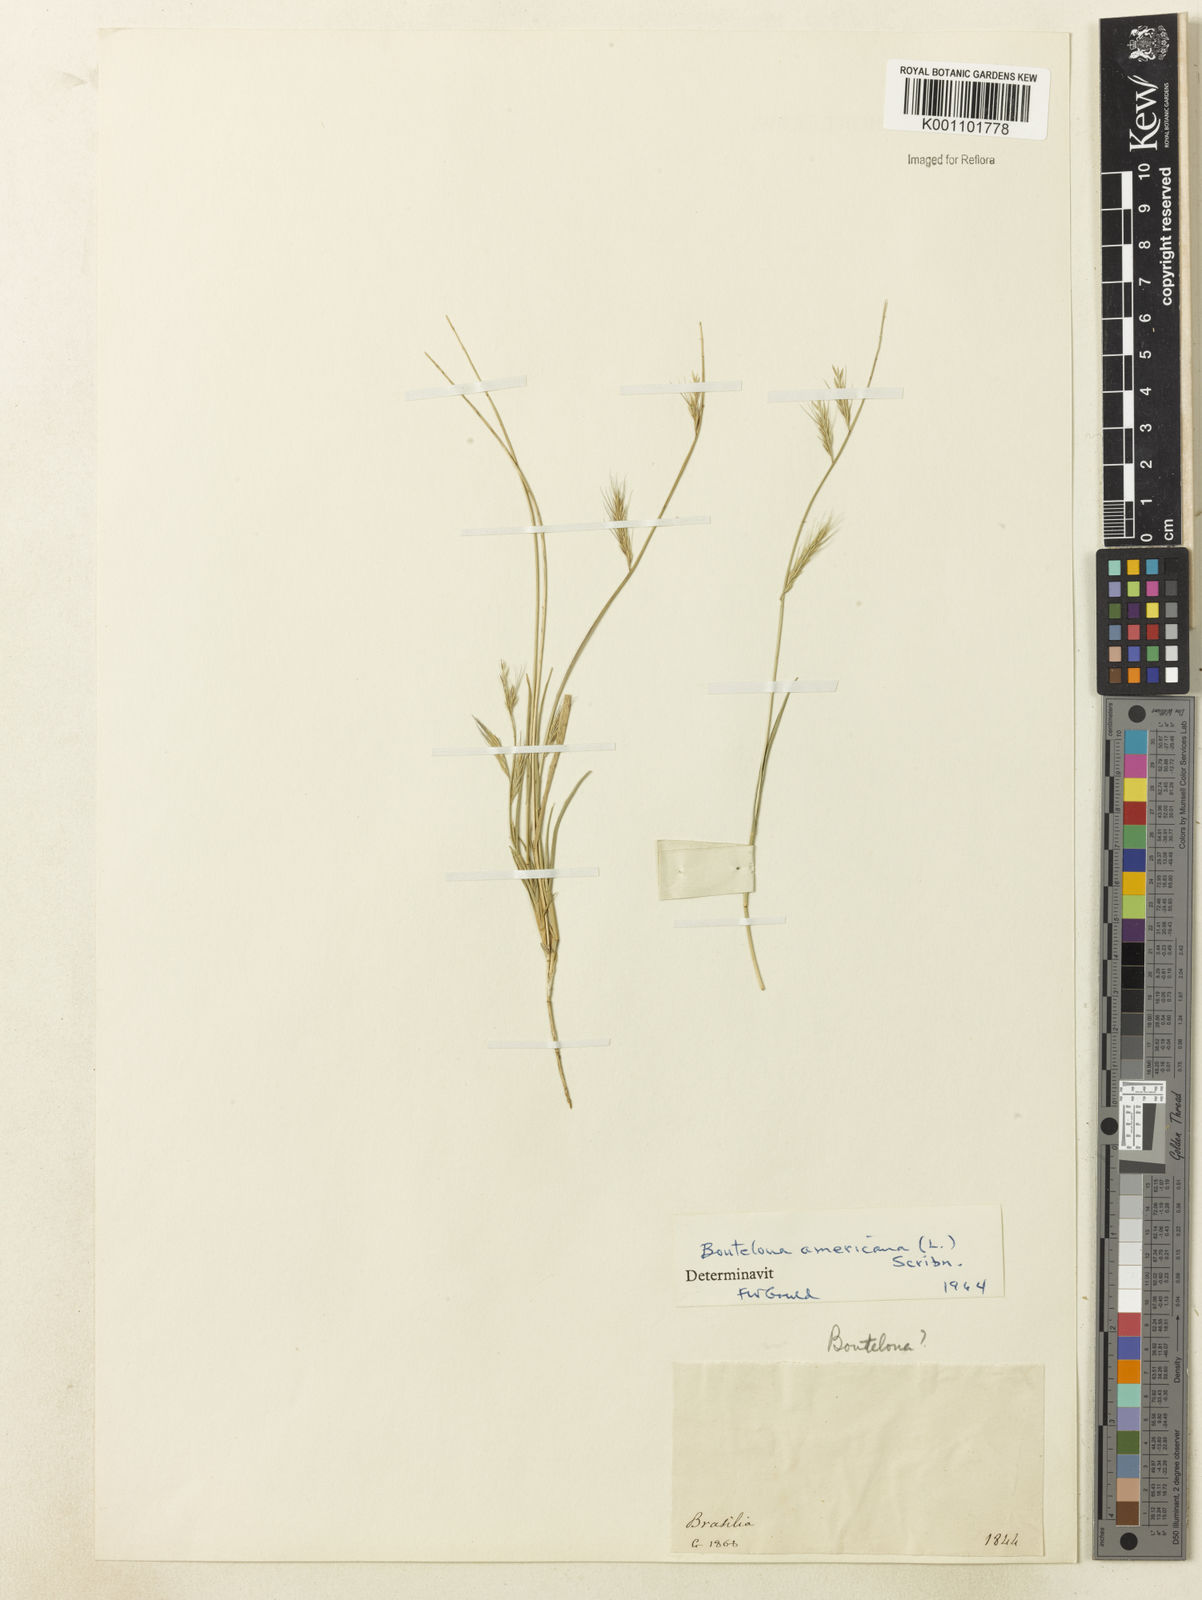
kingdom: Plantae
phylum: Tracheophyta
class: Liliopsida
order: Poales
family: Poaceae
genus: Bouteloua
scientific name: Bouteloua americana
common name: Mule grass
